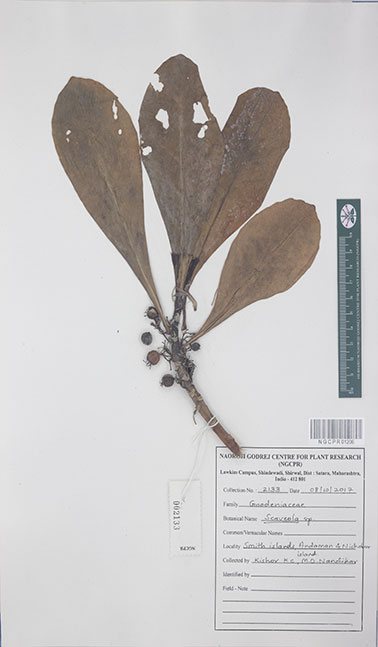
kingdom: Plantae
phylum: Tracheophyta
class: Magnoliopsida
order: Asterales
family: Goodeniaceae
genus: Scaevola
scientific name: Scaevola
